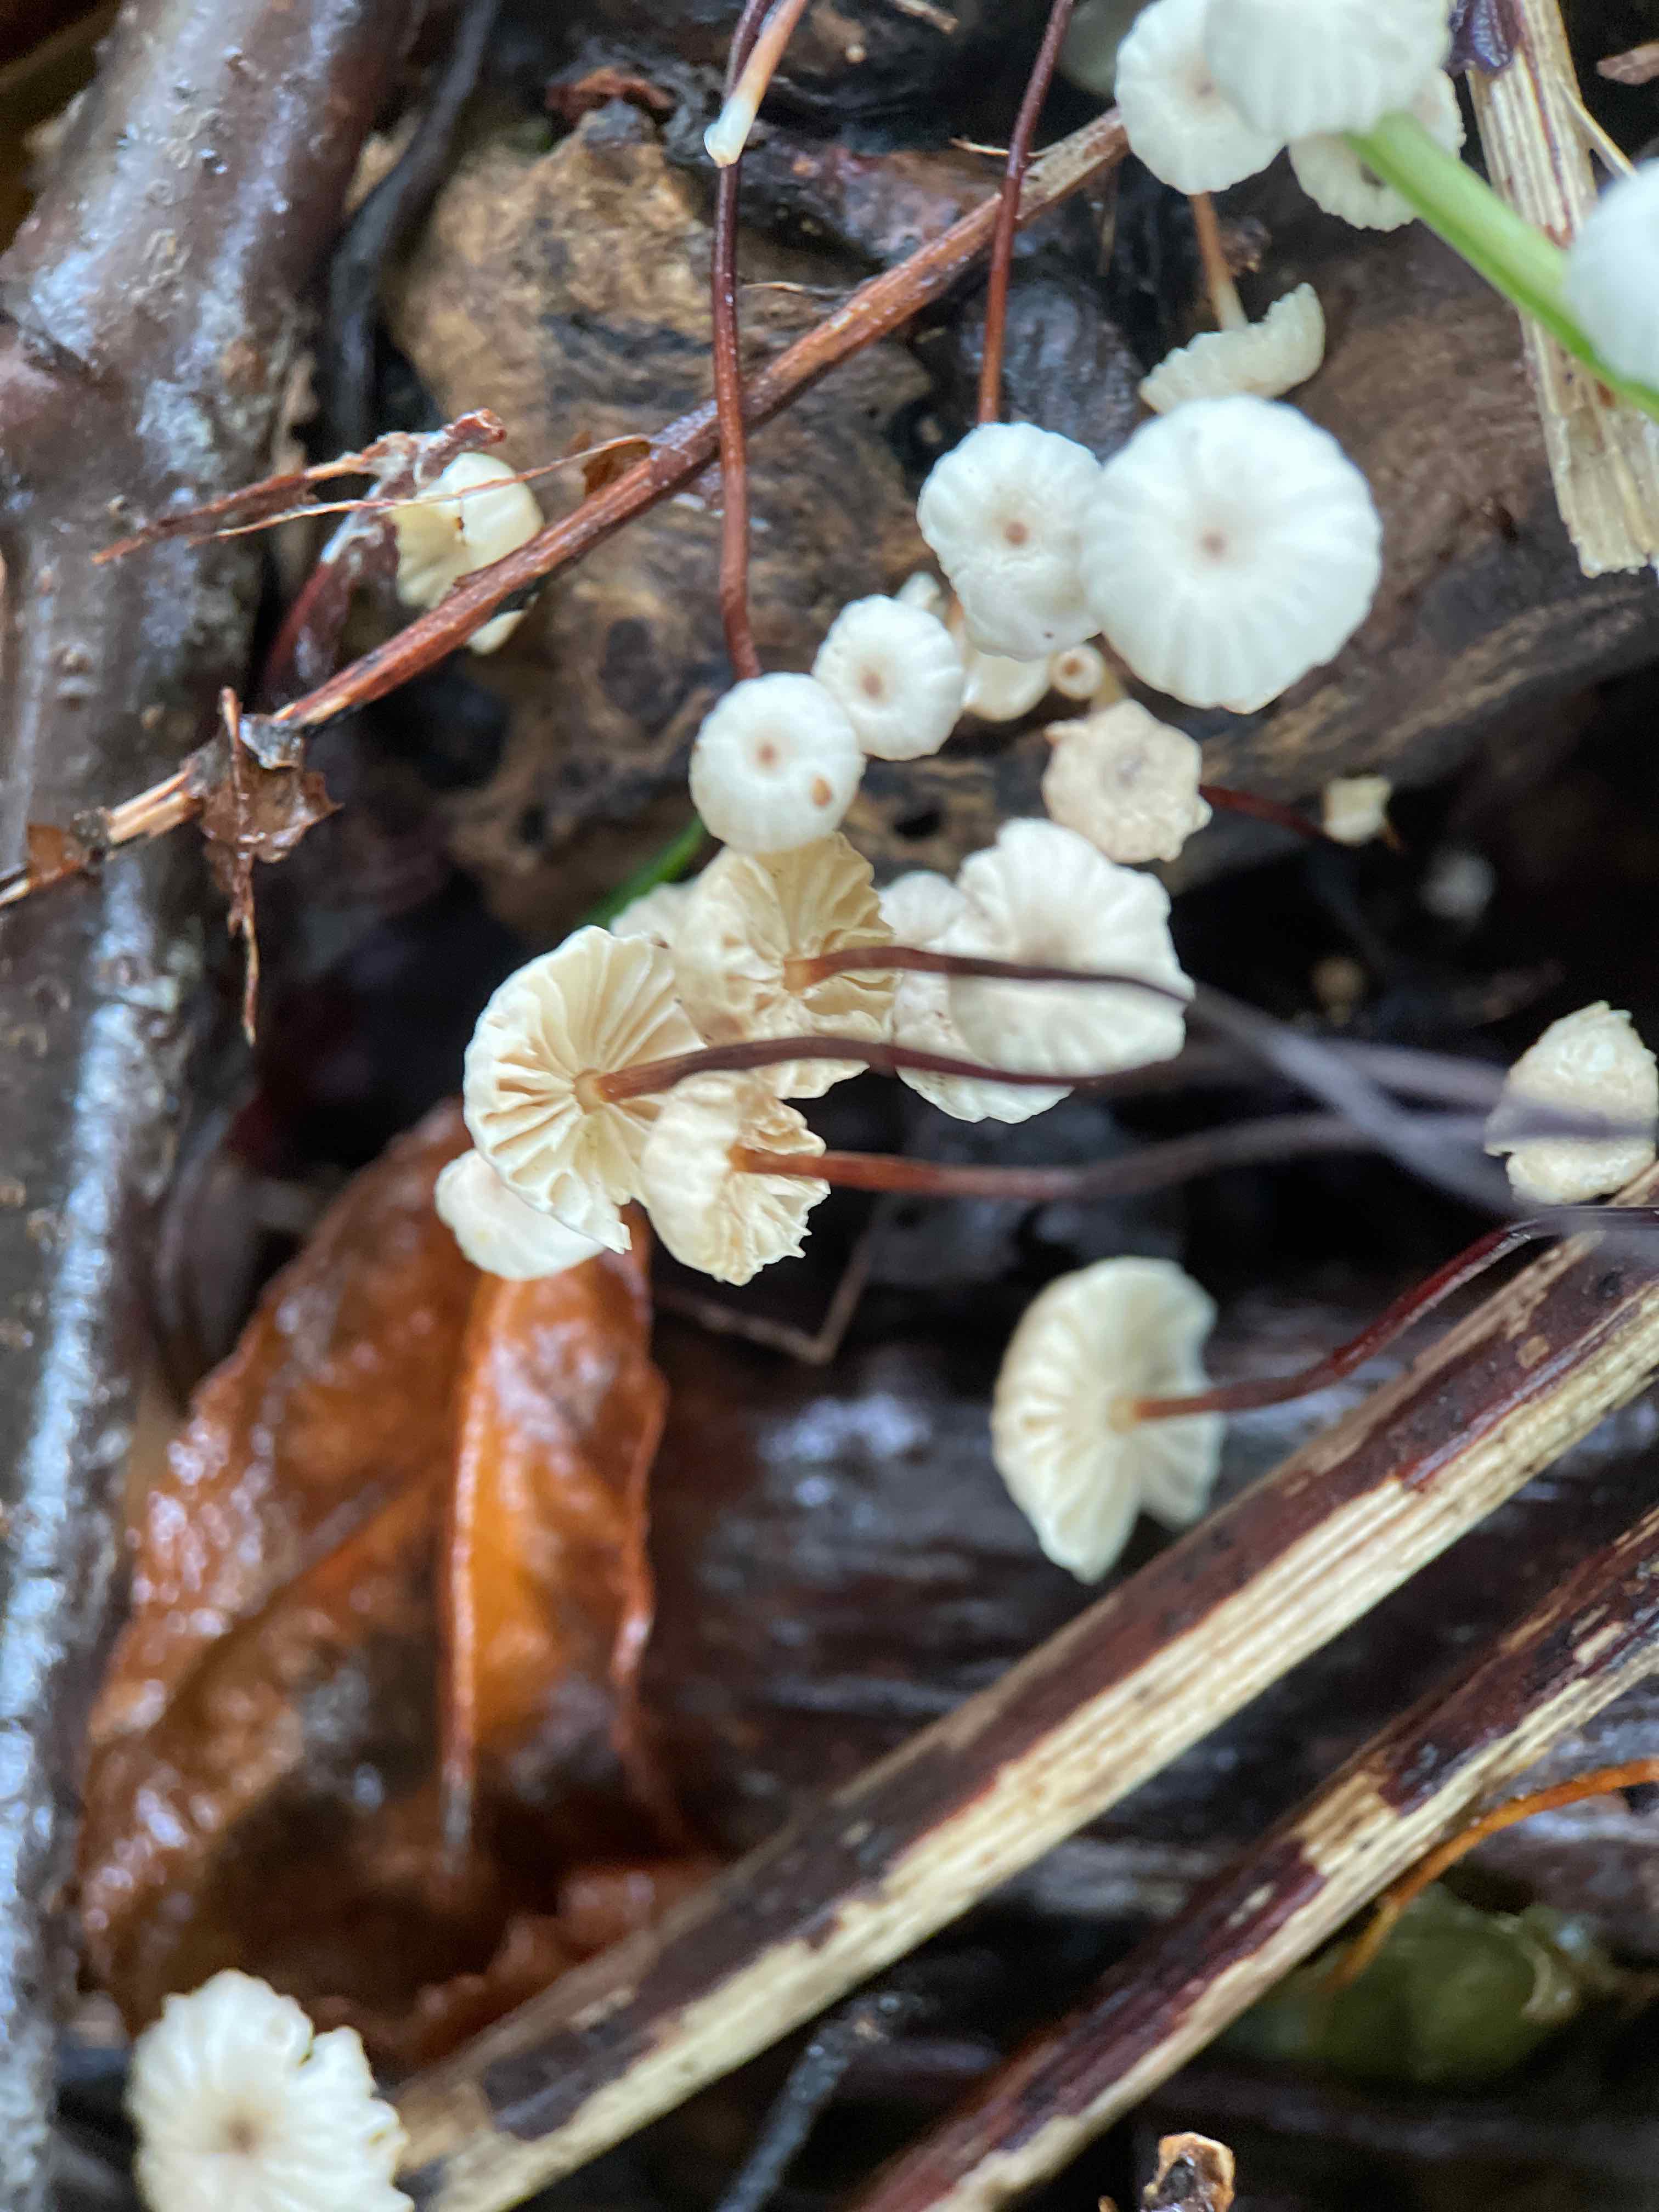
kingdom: Fungi
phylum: Basidiomycota
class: Agaricomycetes
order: Agaricales
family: Marasmiaceae
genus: Marasmius
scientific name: Marasmius rotula
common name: hjul-bruskhat
